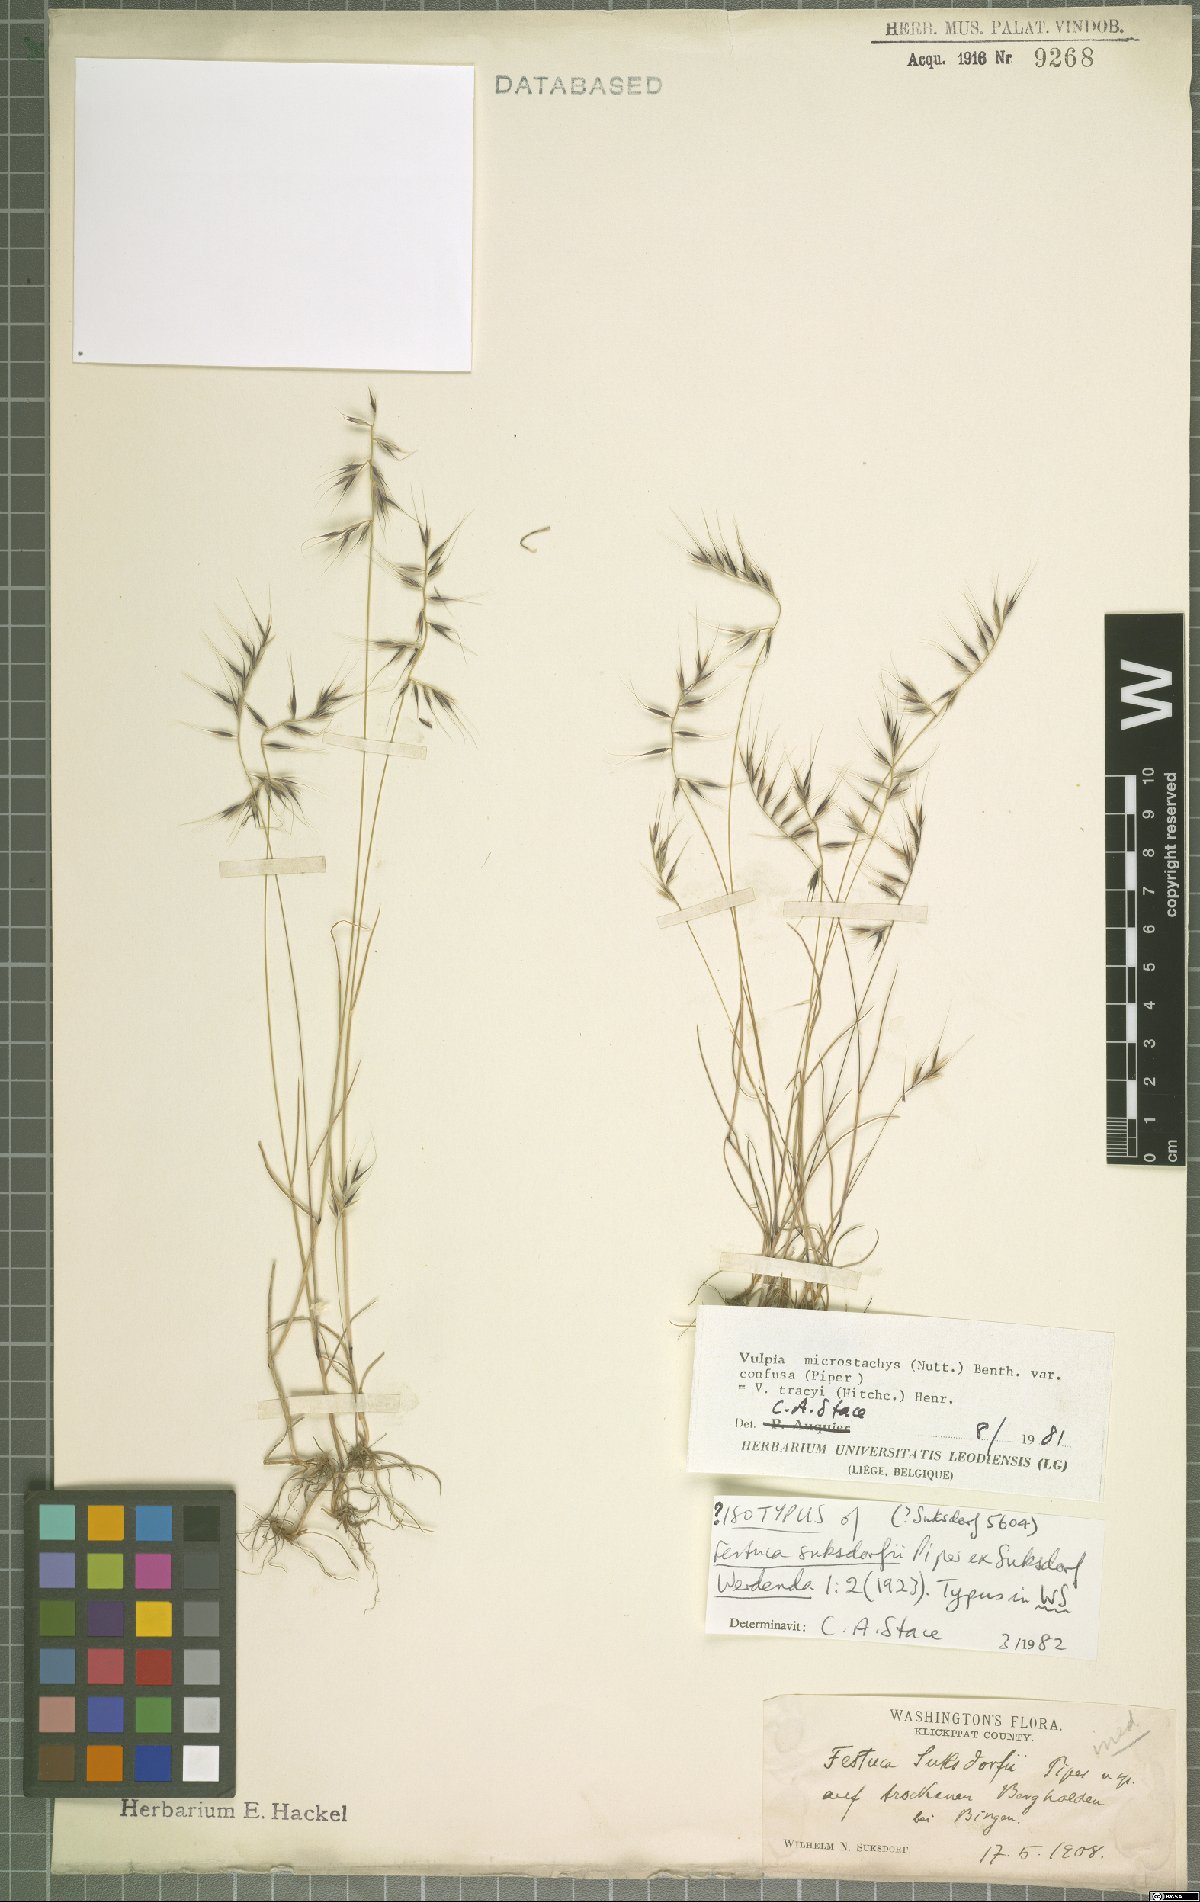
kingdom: Plantae
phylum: Tracheophyta
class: Liliopsida
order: Poales
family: Poaceae
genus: Festuca
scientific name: Festuca confusa
